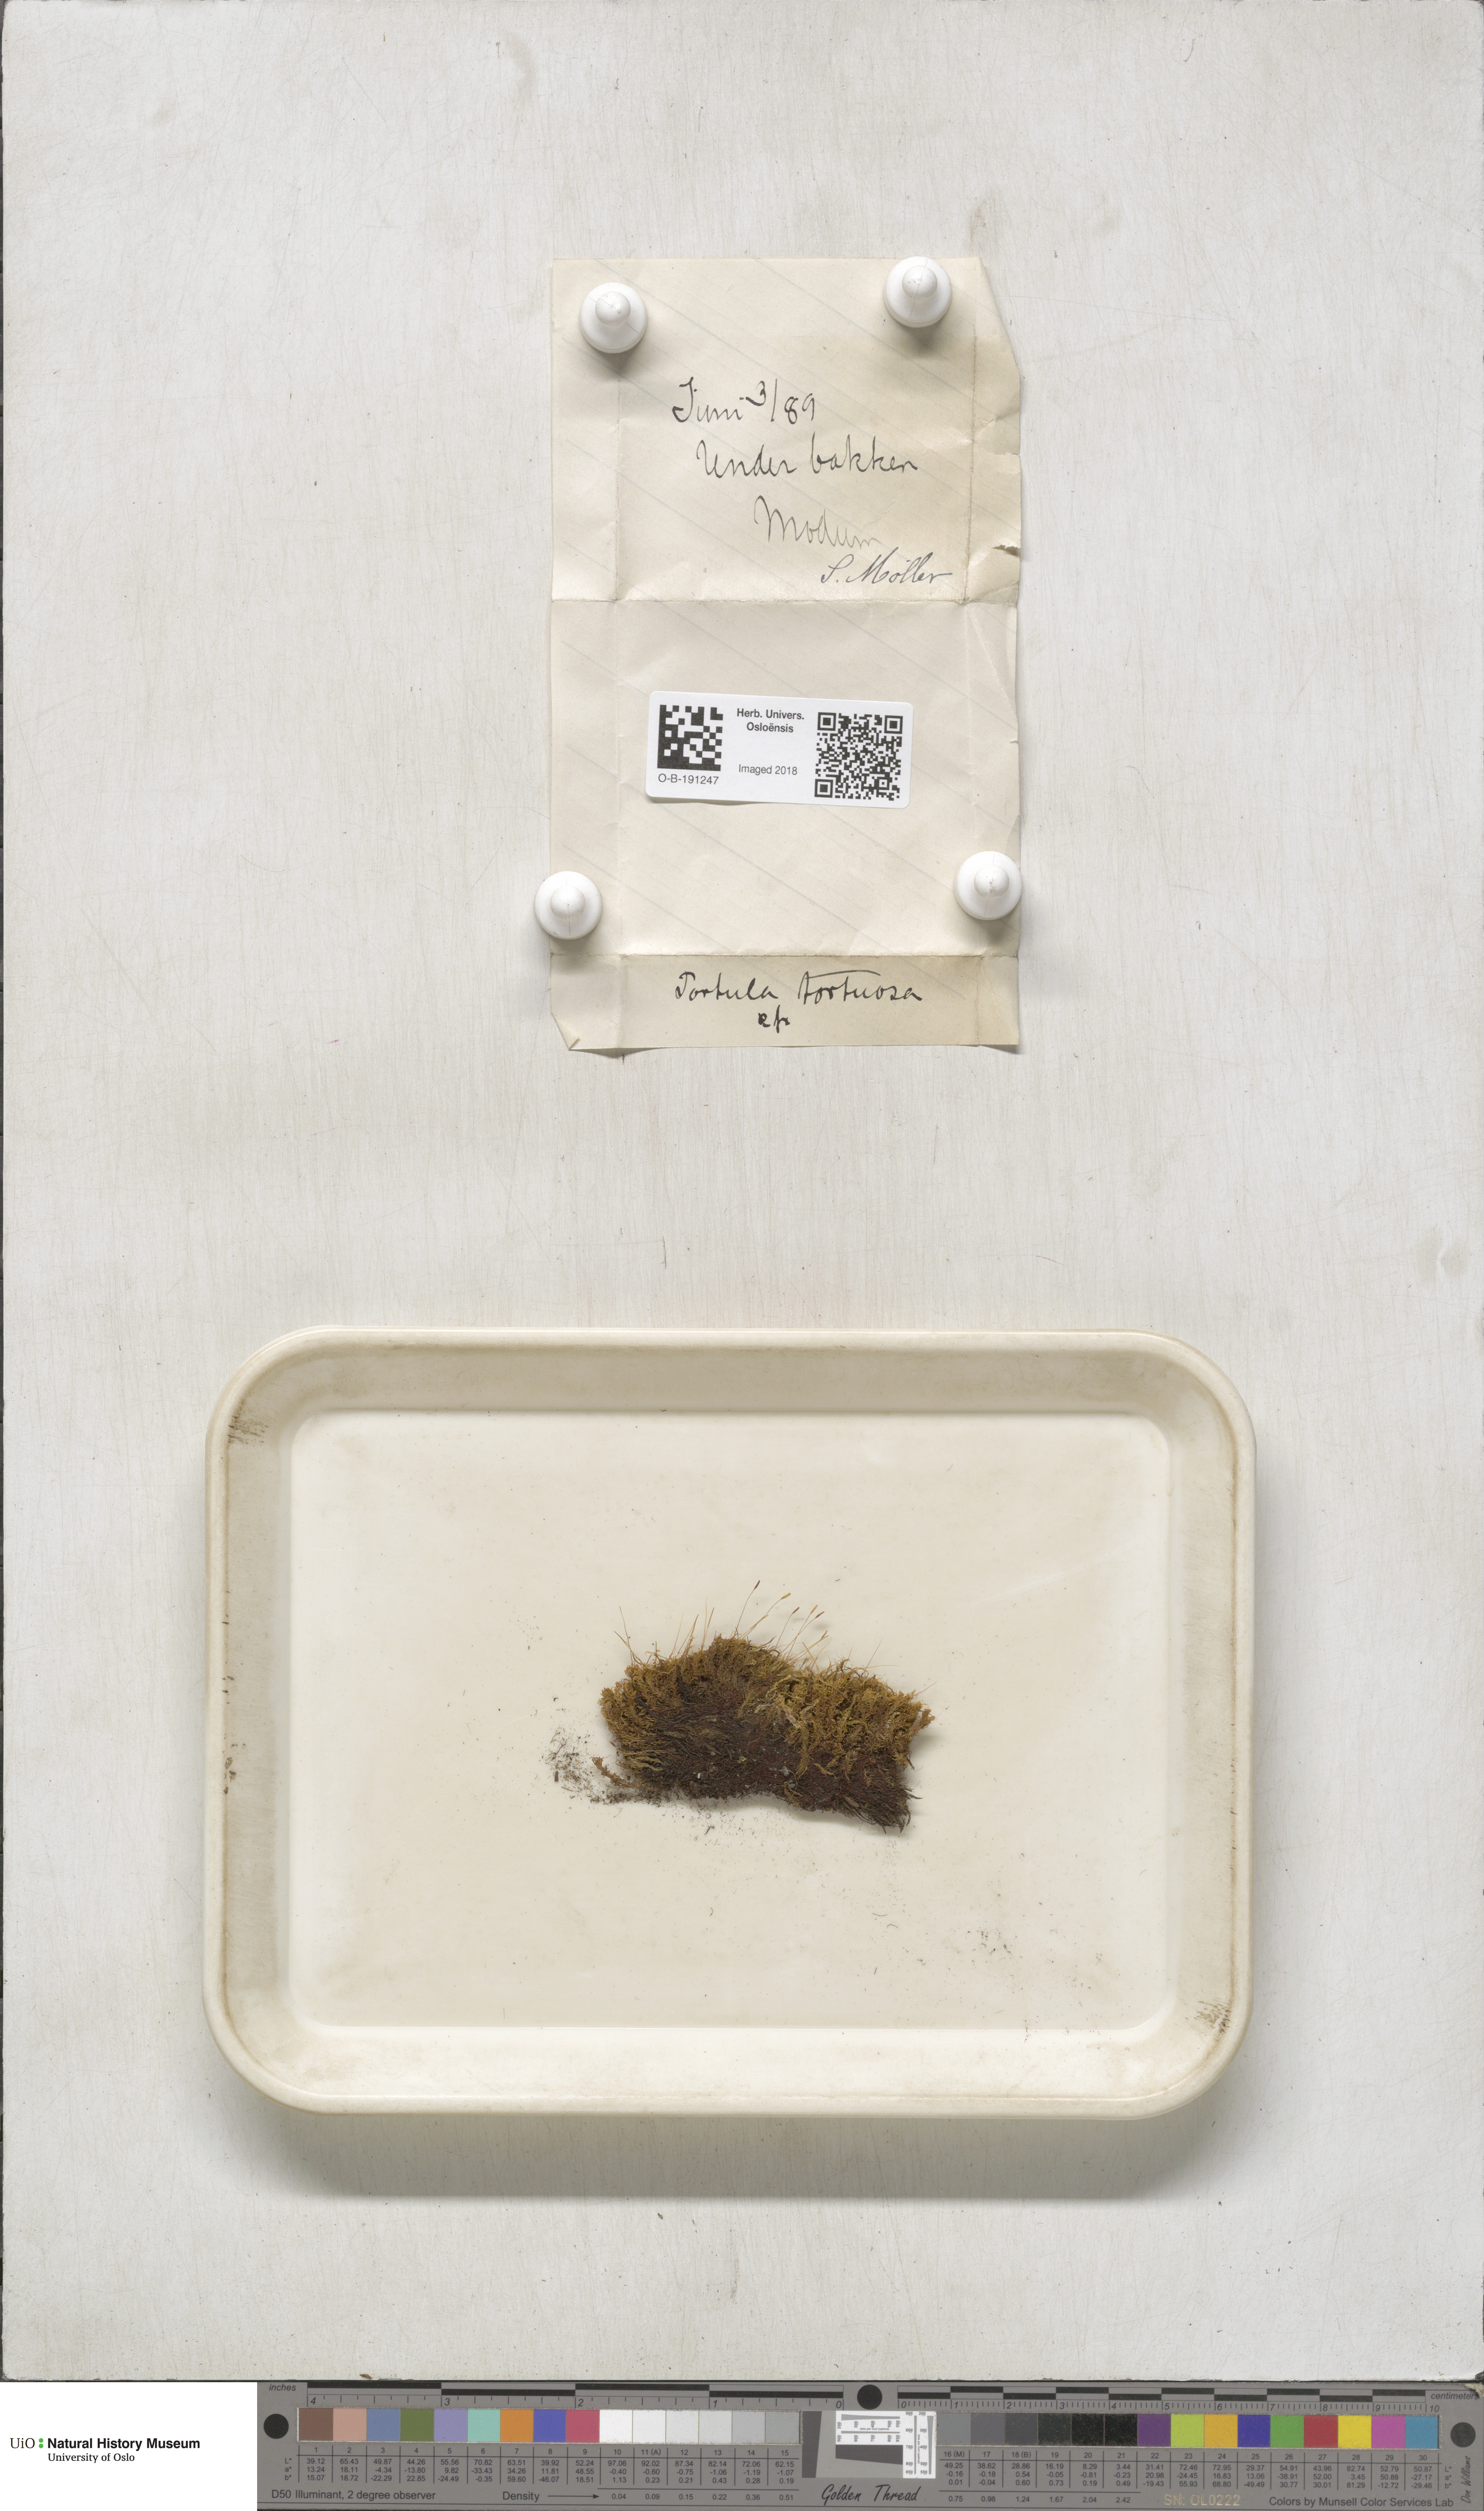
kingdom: Plantae
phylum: Bryophyta
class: Bryopsida
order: Pottiales
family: Pottiaceae
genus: Tortella
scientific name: Tortella tortuosa
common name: Frizzled crisp moss
